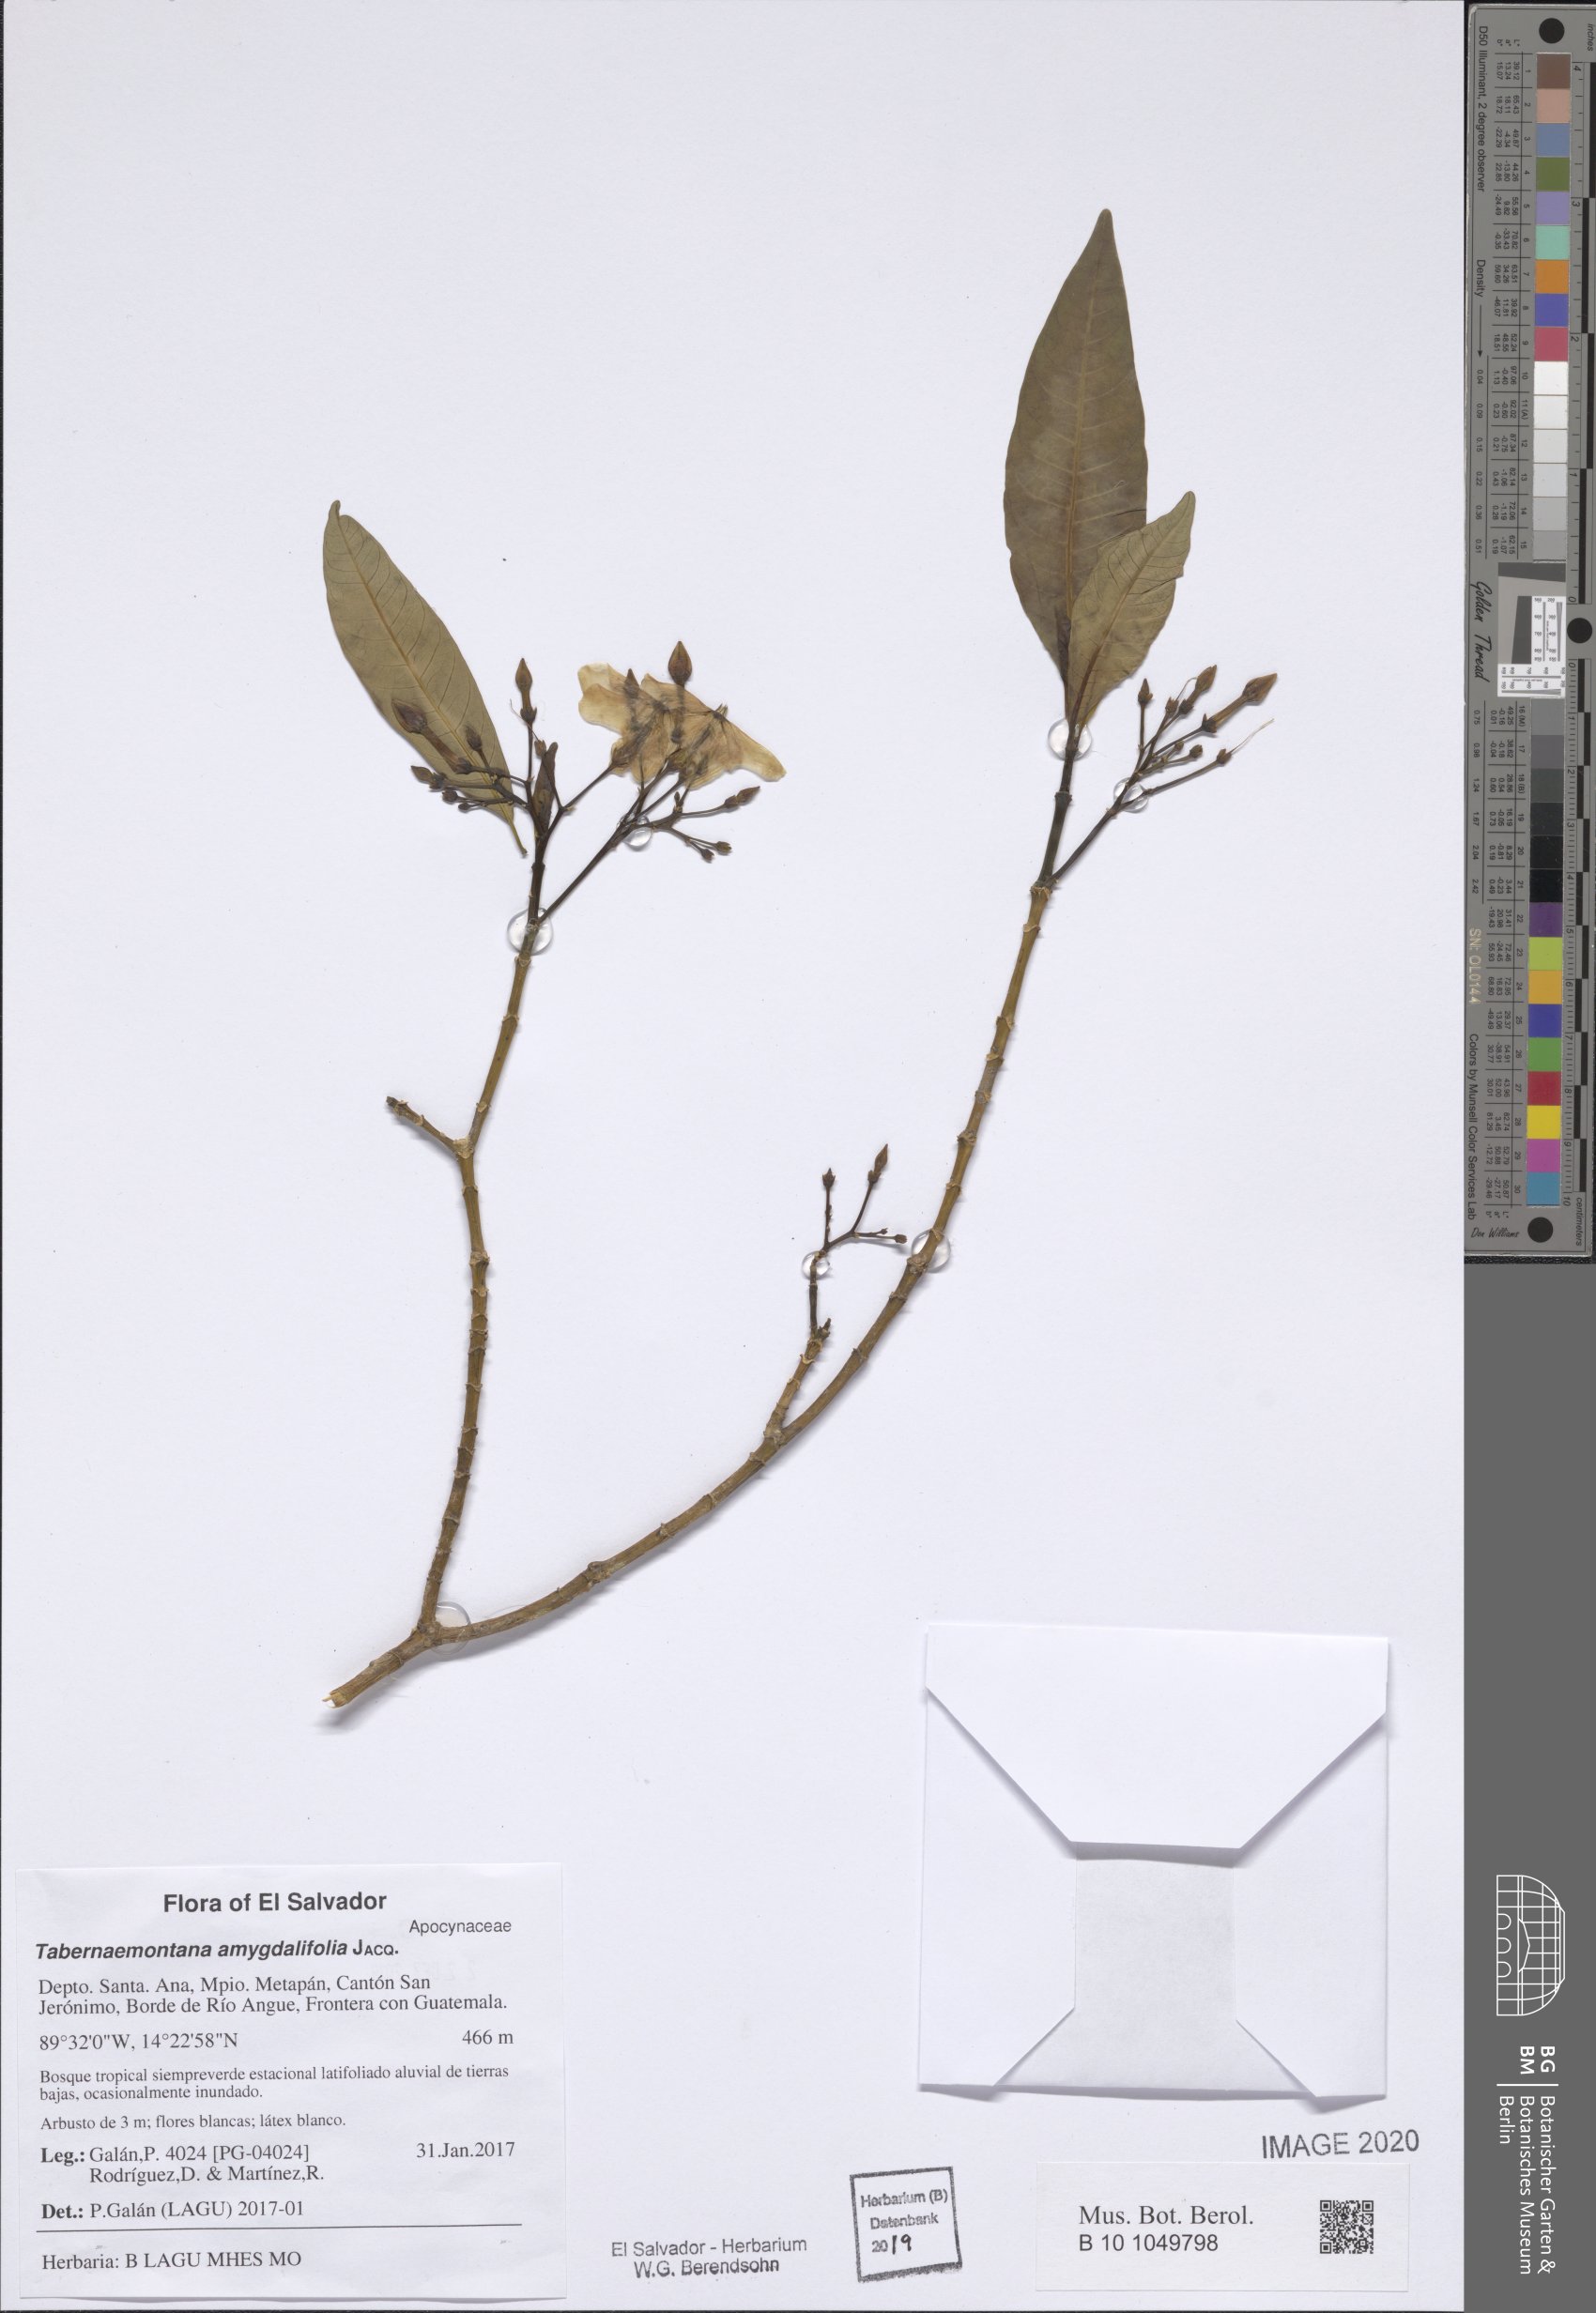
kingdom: Plantae
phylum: Tracheophyta
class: Magnoliopsida
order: Gentianales
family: Apocynaceae
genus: Tabernaemontana
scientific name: Tabernaemontana amygdalifolia
